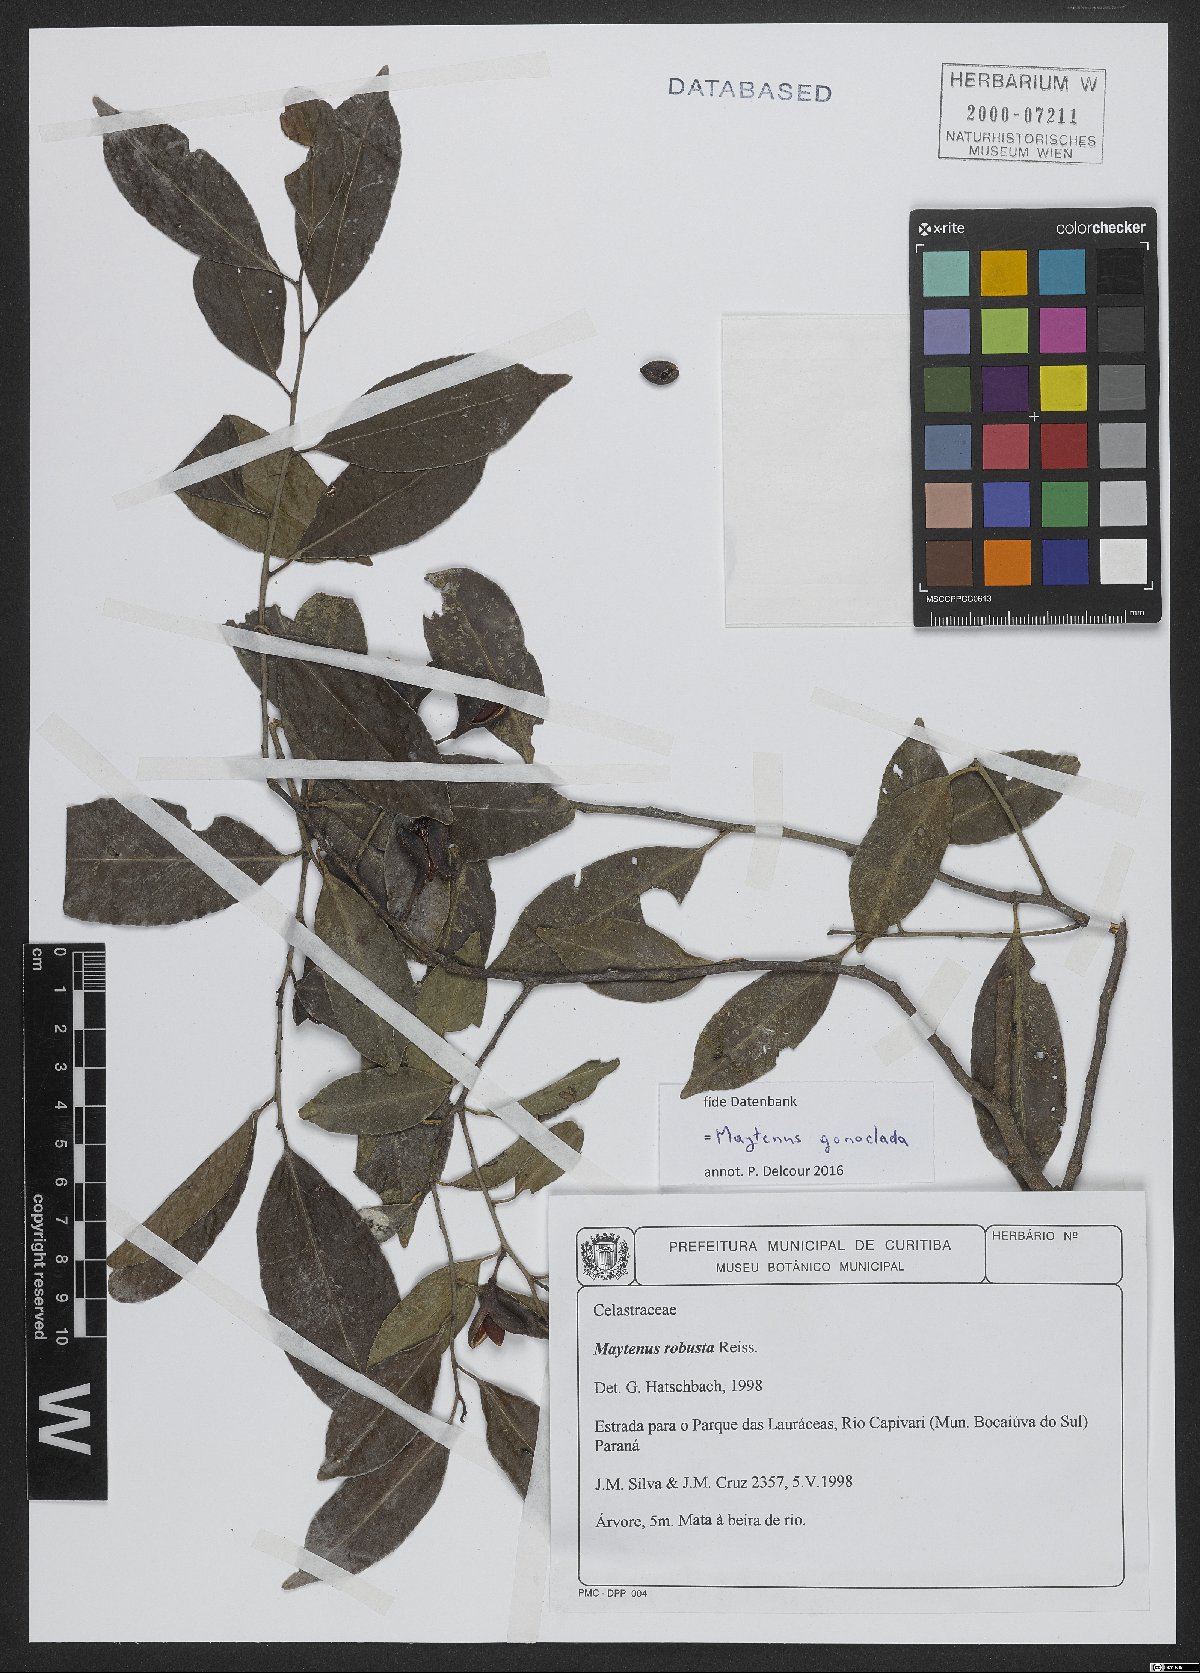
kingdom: Plantae
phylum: Tracheophyta
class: Magnoliopsida
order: Celastrales
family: Celastraceae
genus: Monteverdia
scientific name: Monteverdia gonoclada
